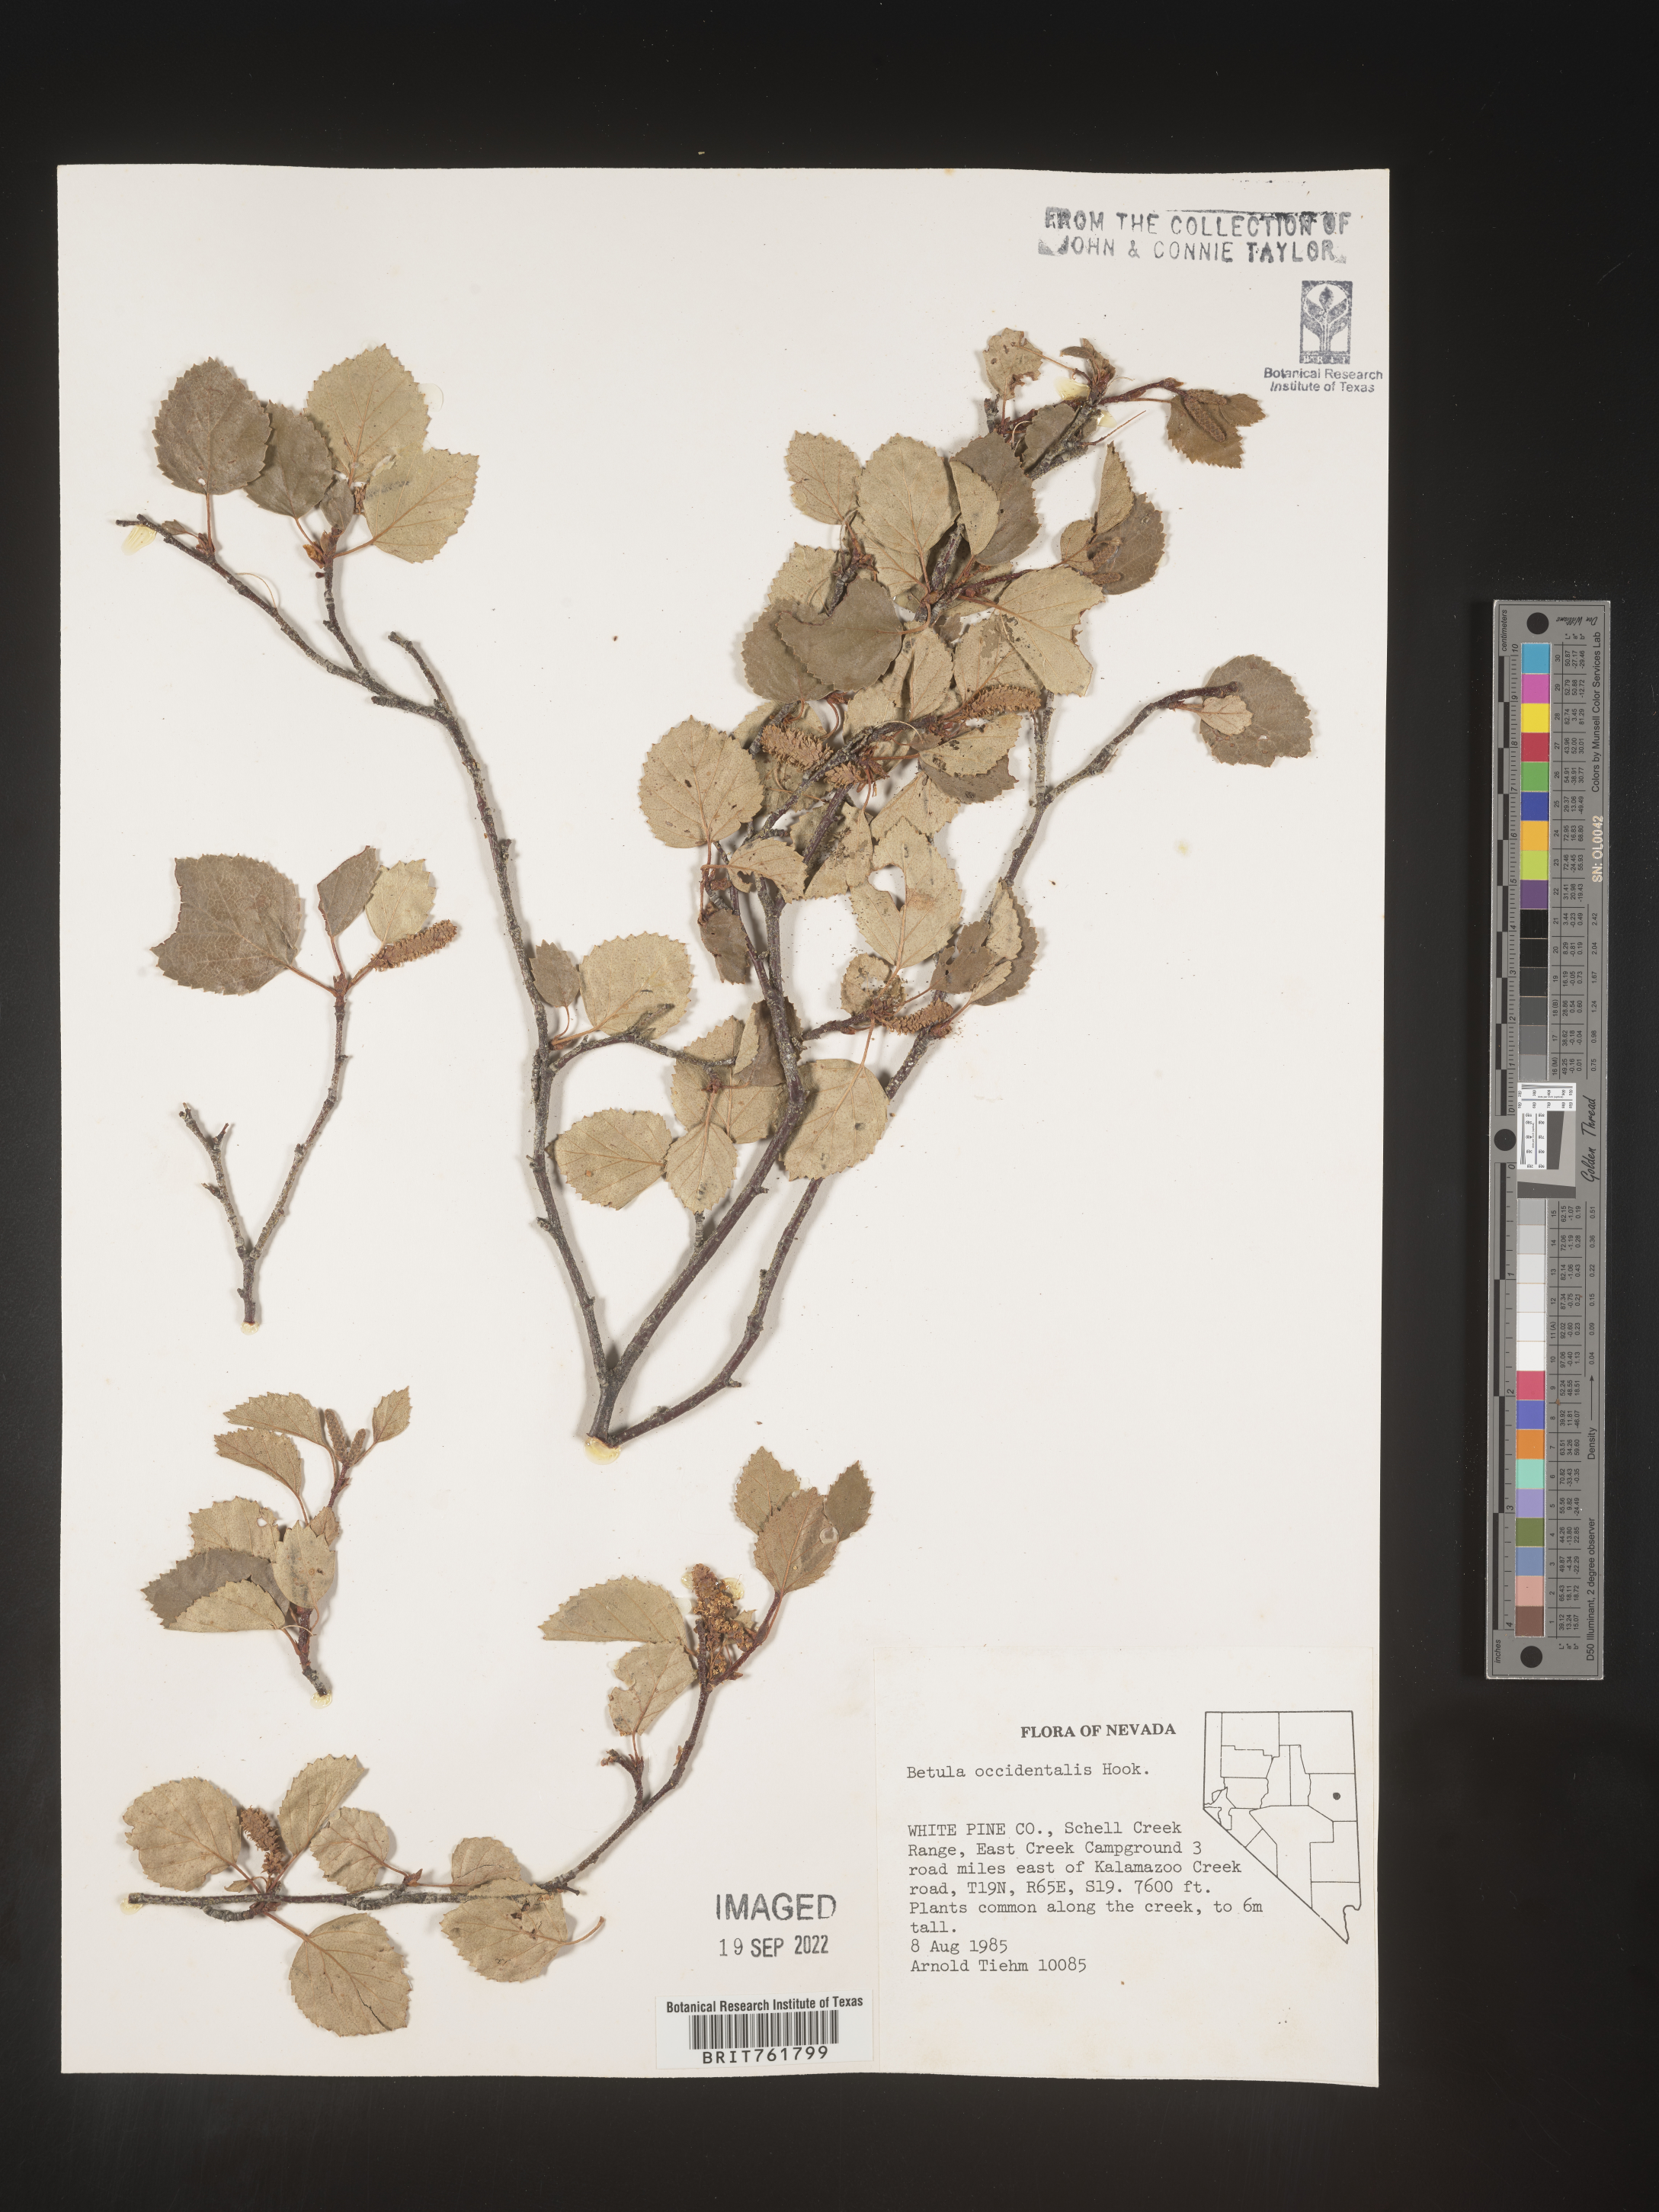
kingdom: Plantae
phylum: Tracheophyta
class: Magnoliopsida
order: Fagales
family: Betulaceae
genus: Betula
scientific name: Betula occidentalis
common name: River birch
